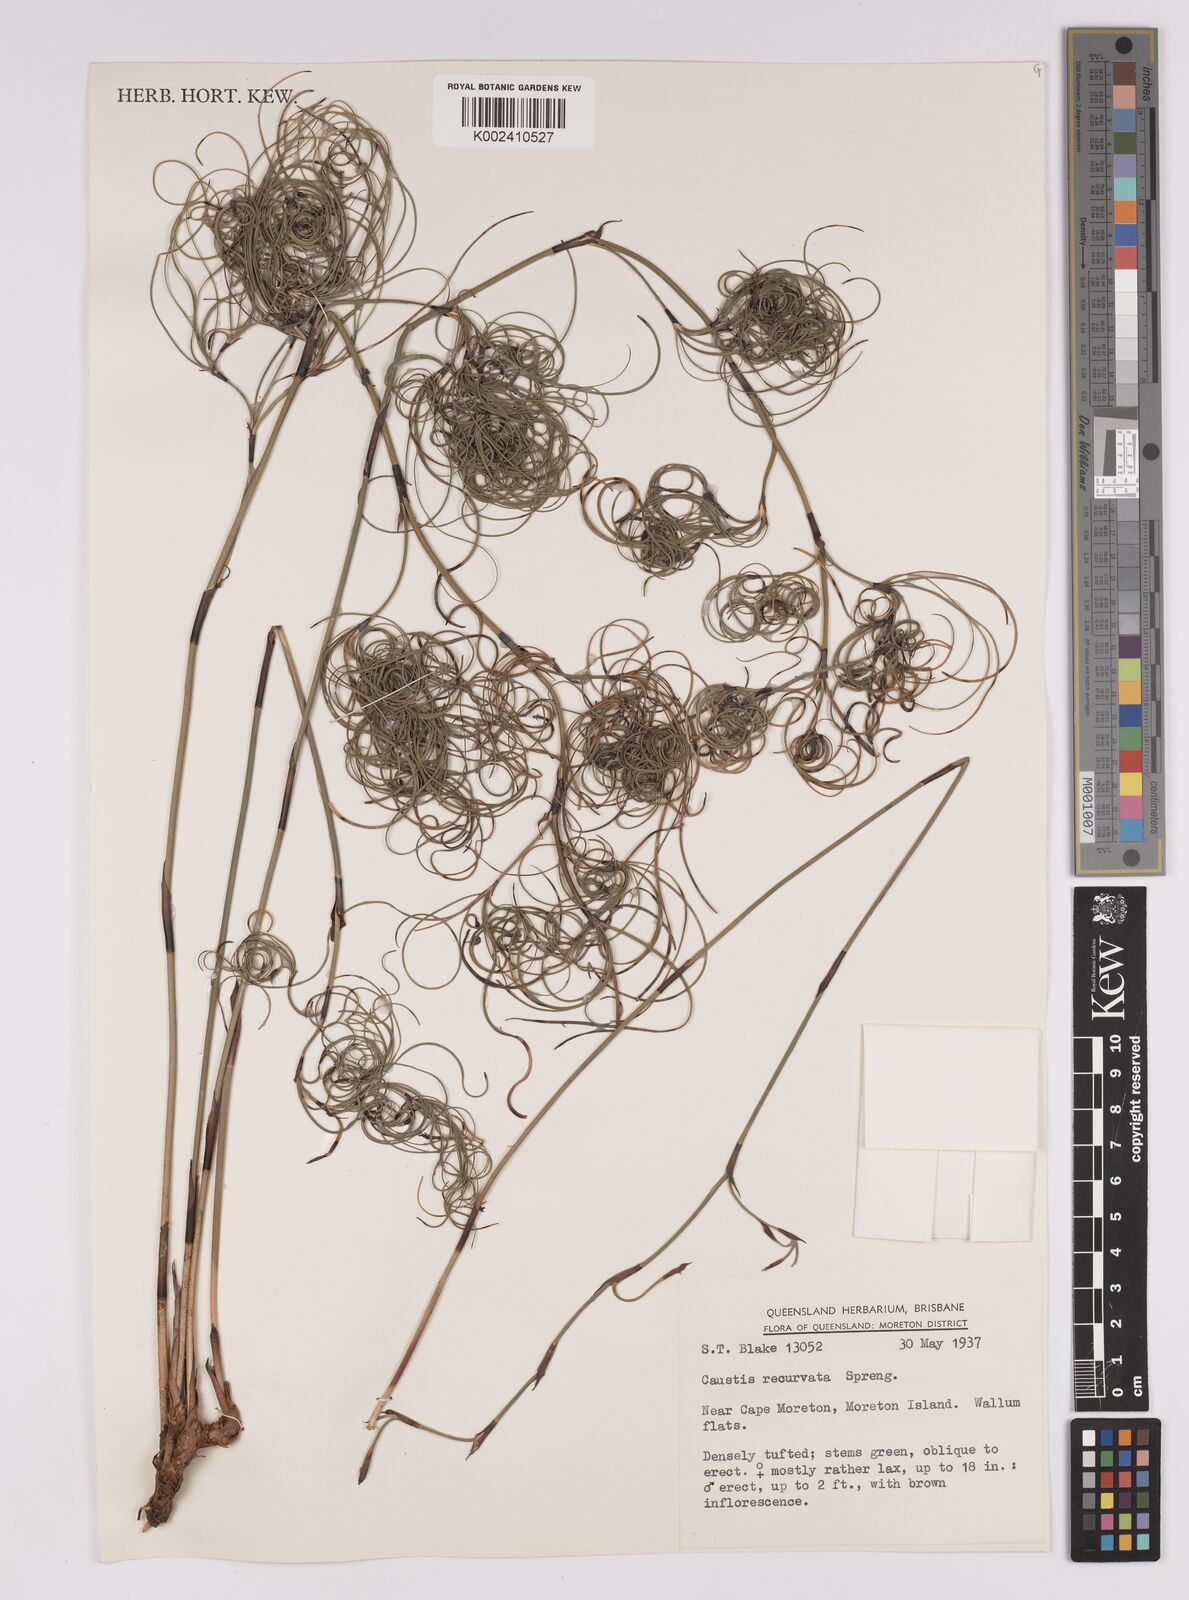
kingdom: Plantae
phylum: Tracheophyta
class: Liliopsida
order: Poales
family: Cyperaceae
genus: Caustis
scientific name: Caustis recurvata
